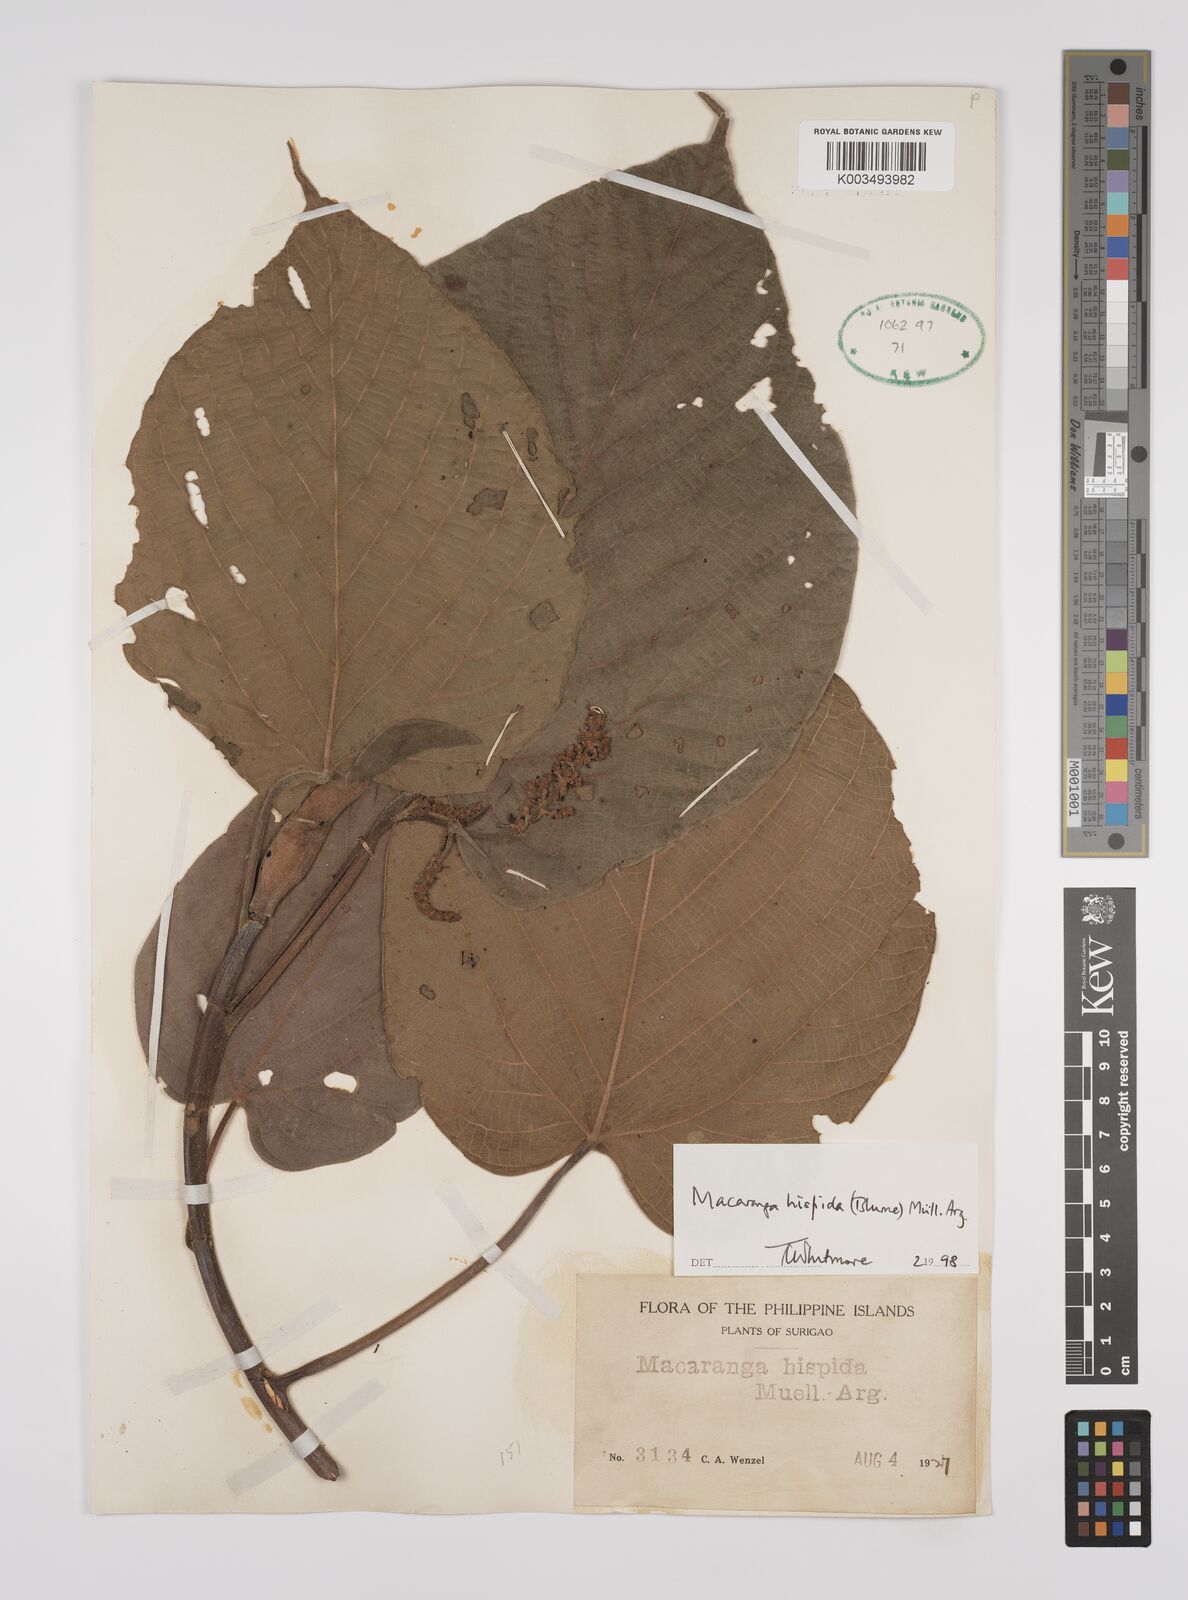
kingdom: Plantae
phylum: Tracheophyta
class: Magnoliopsida
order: Malpighiales
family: Euphorbiaceae
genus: Macaranga
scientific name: Macaranga hispida
